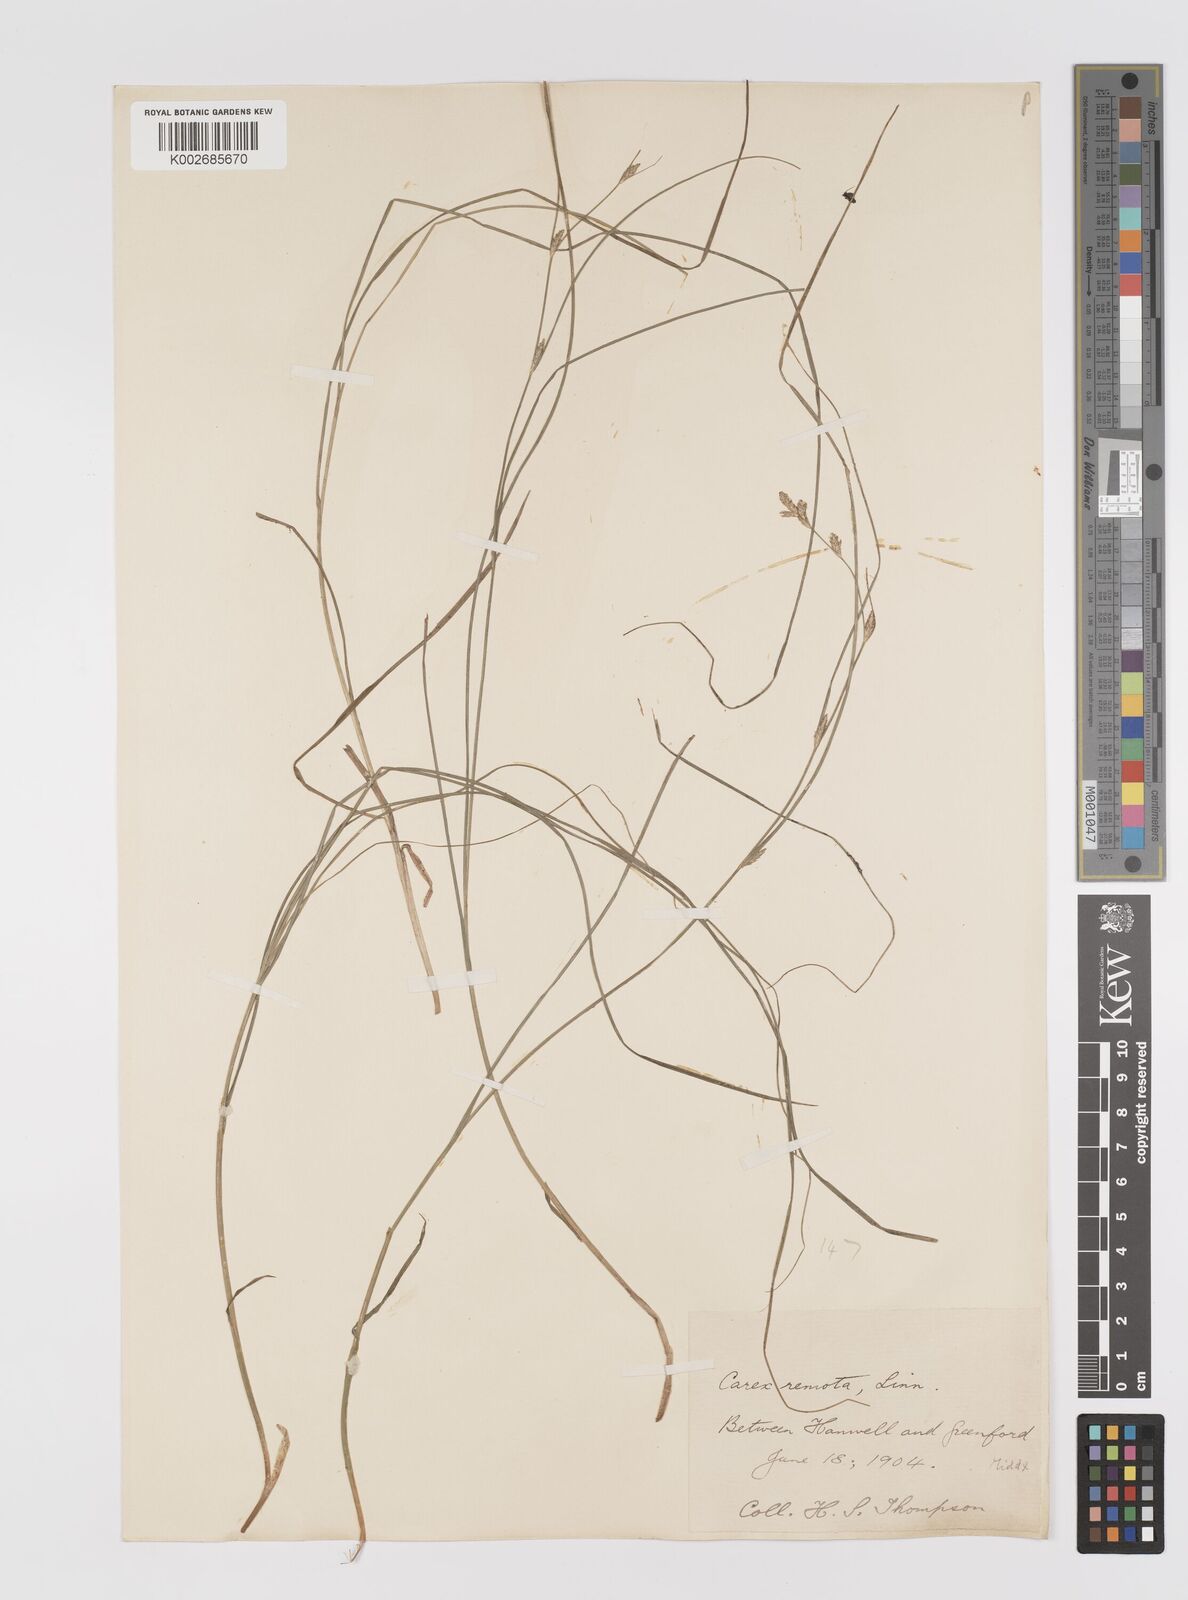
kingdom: Plantae
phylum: Tracheophyta
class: Liliopsida
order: Poales
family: Cyperaceae
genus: Carex
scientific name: Carex remota
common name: Remote sedge
